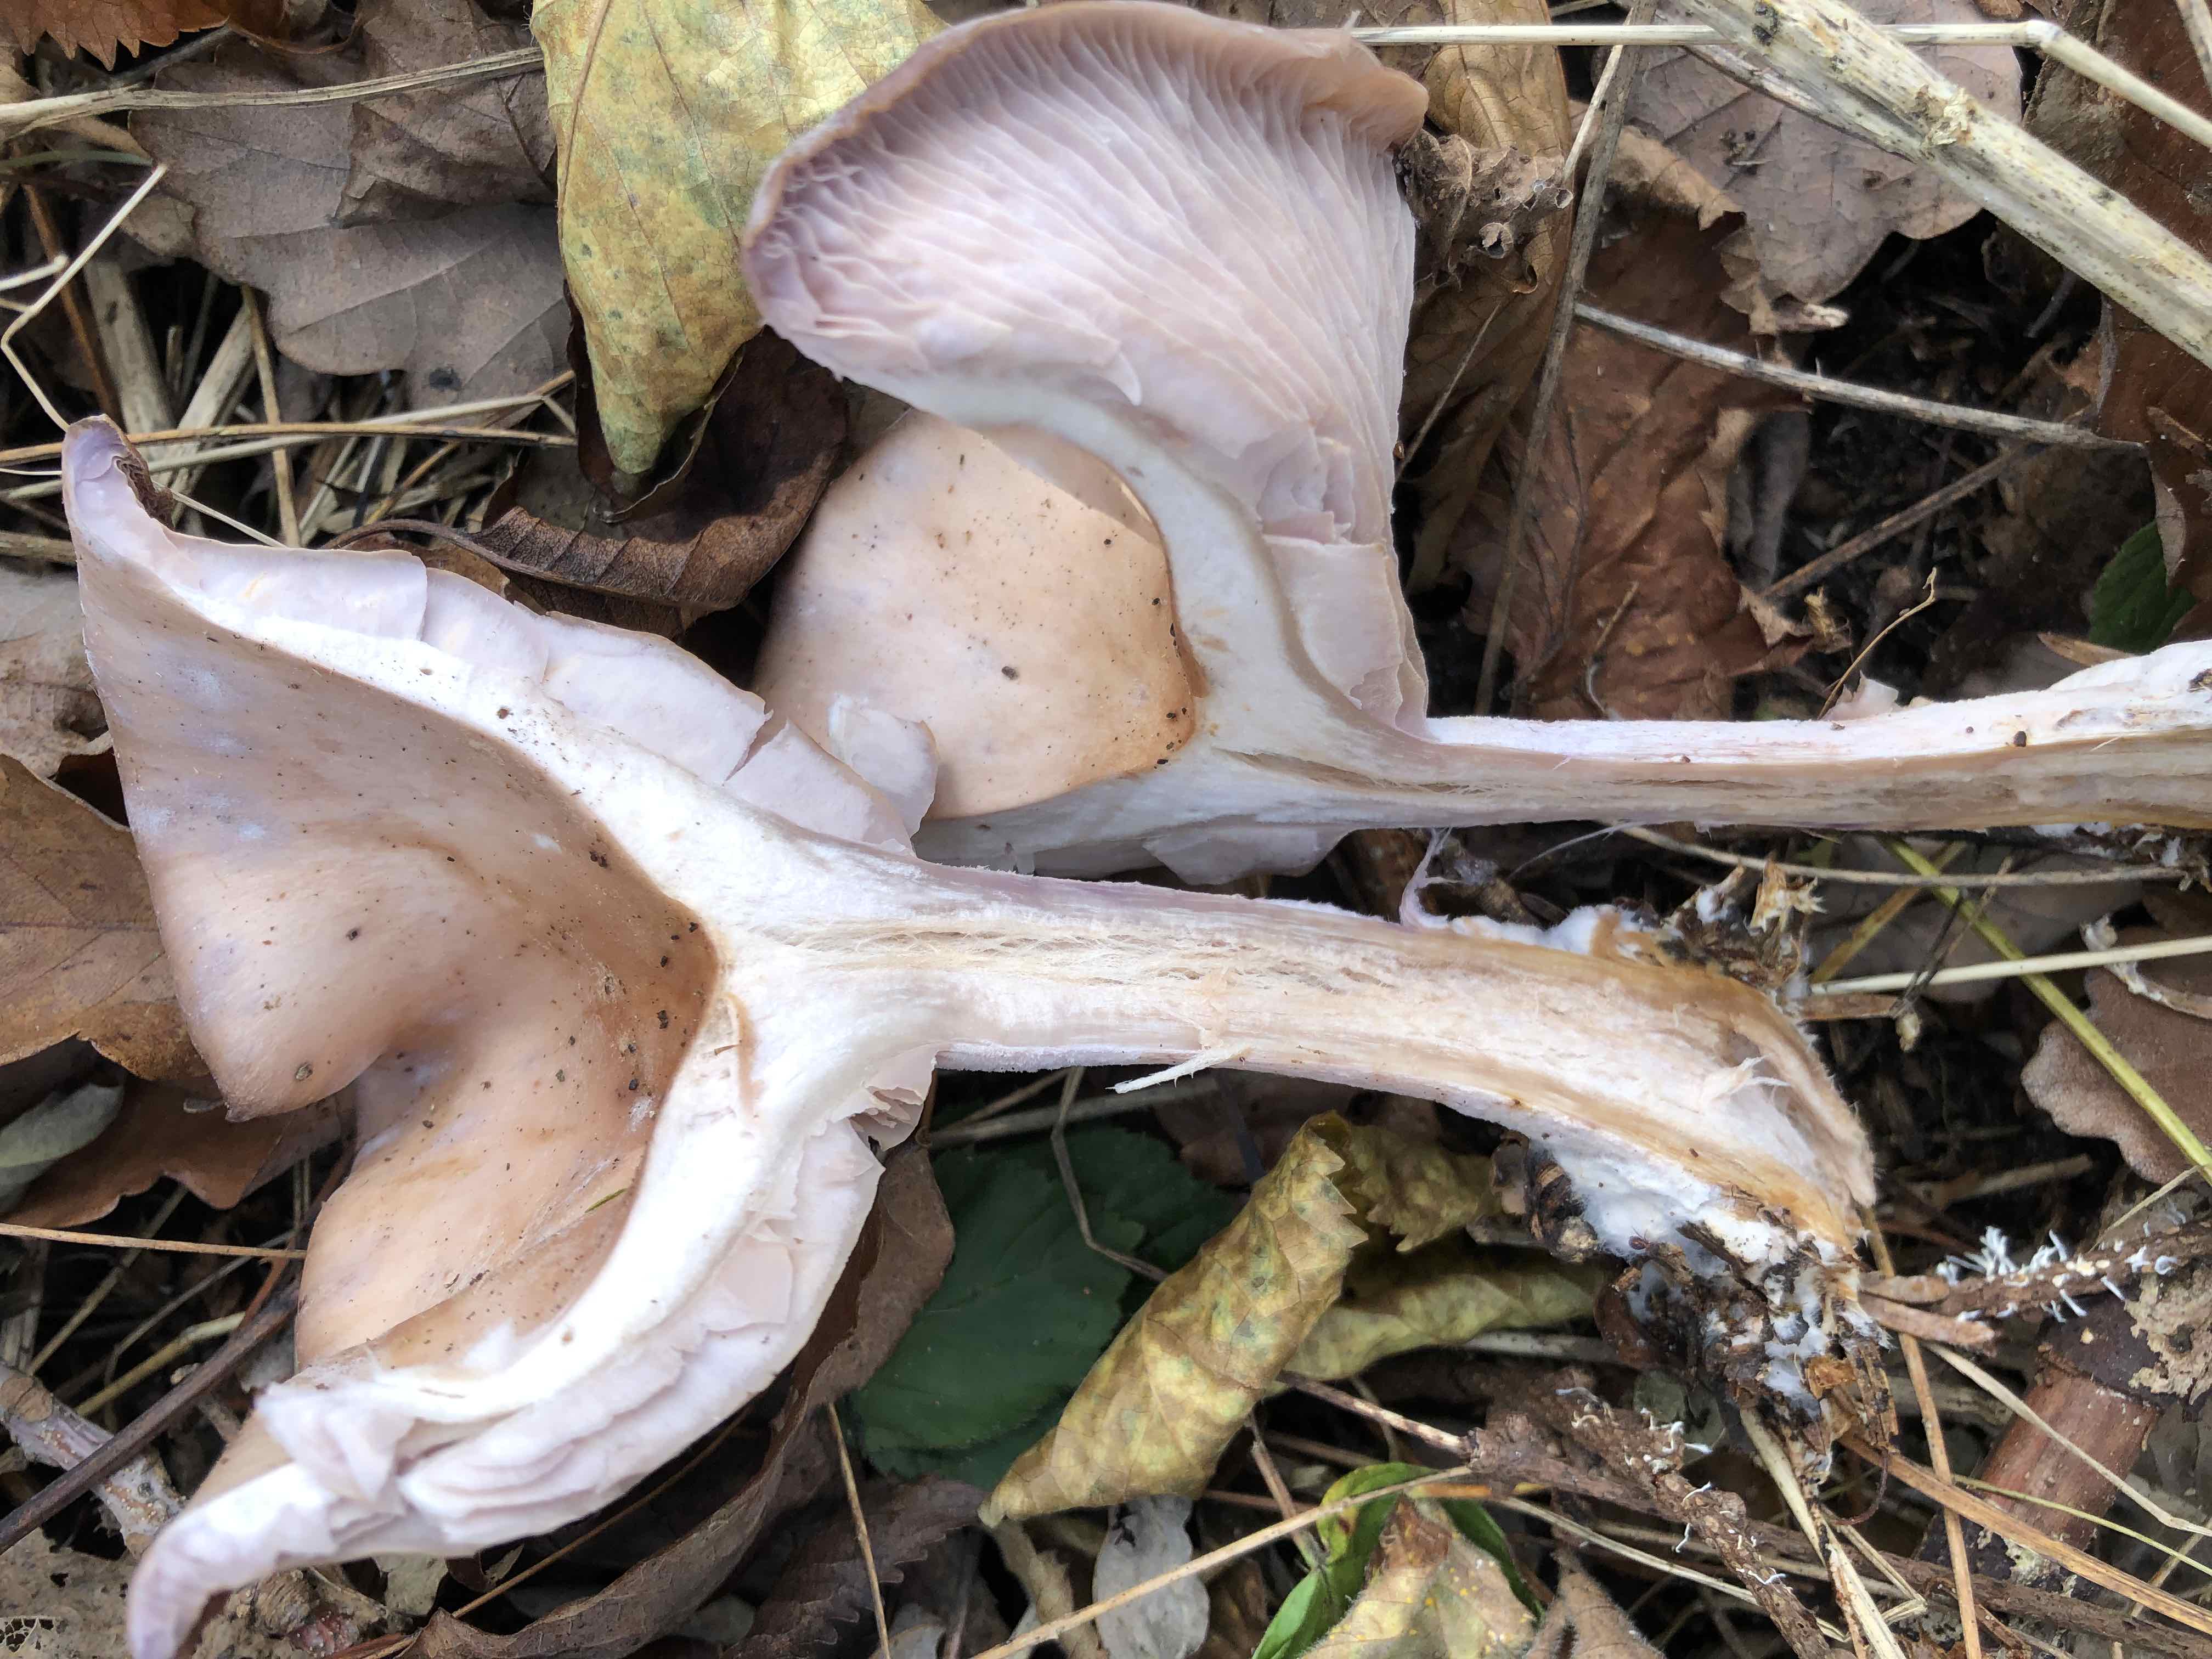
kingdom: Fungi
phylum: Basidiomycota
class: Agaricomycetes
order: Agaricales
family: Tricholomataceae
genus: Lepista
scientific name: Lepista
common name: hekseringshat
